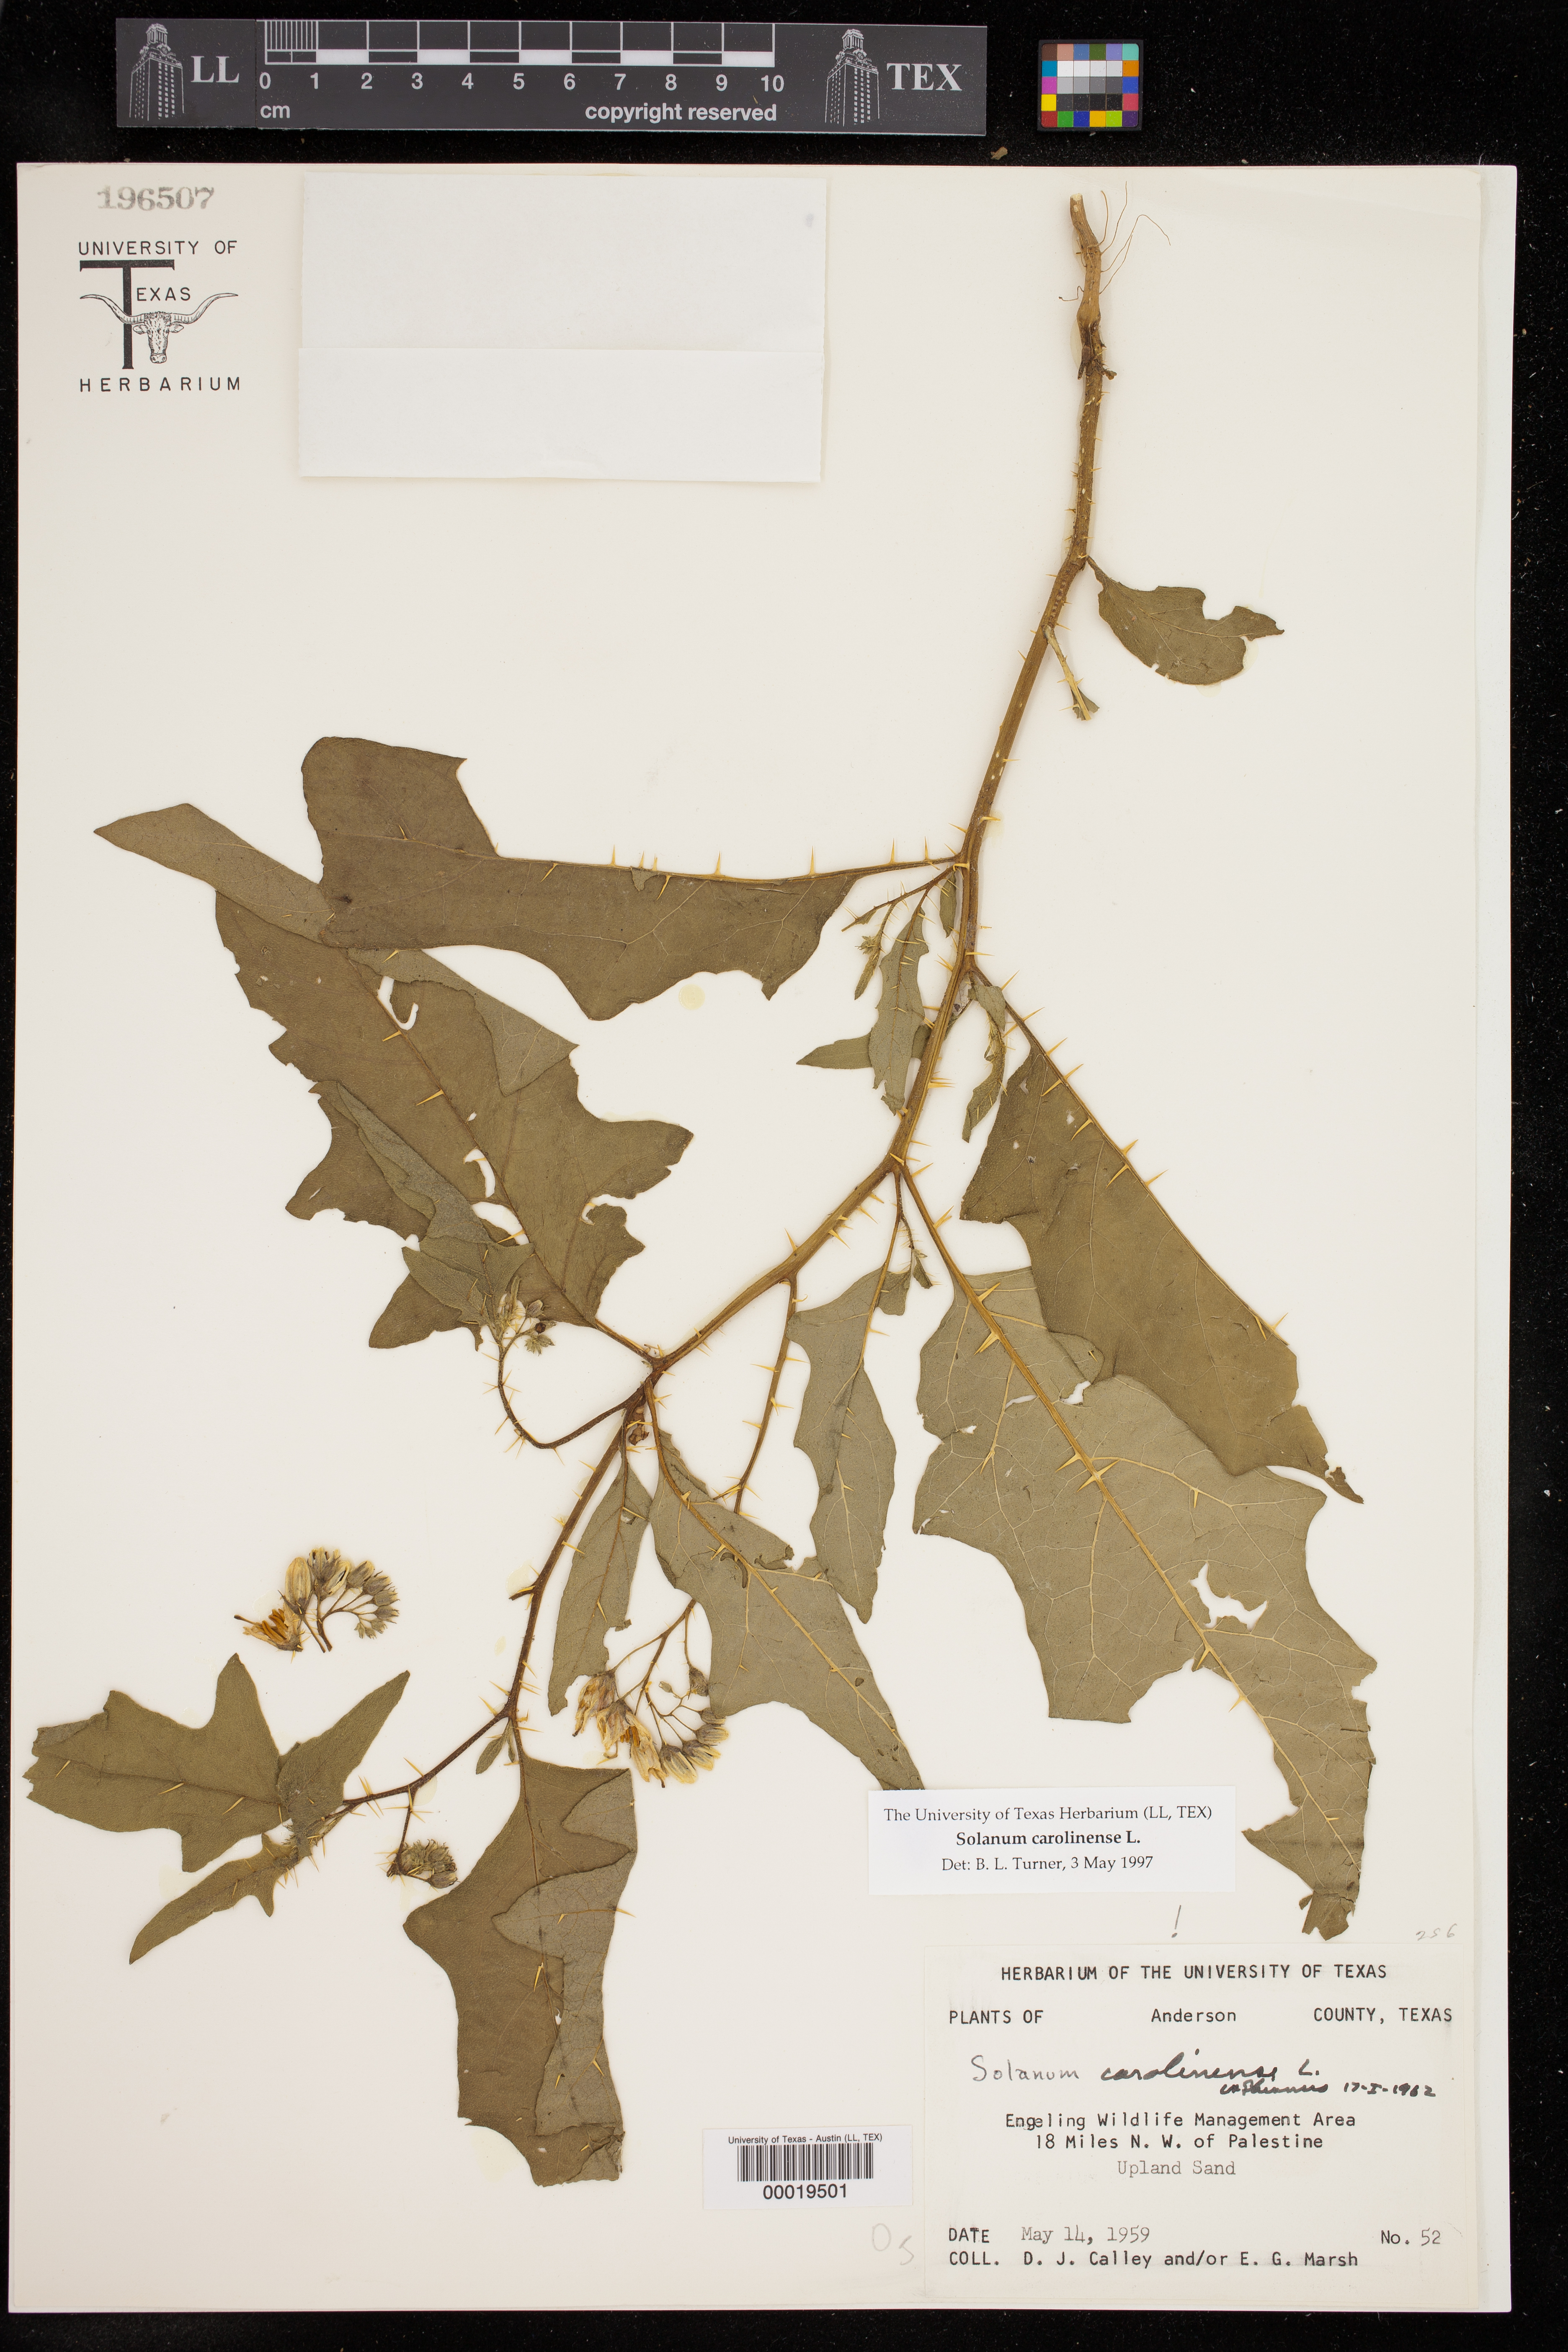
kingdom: Plantae
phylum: Tracheophyta
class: Magnoliopsida
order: Solanales
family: Solanaceae
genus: Solanum
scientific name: Solanum carolinense
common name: Horse-nettle
